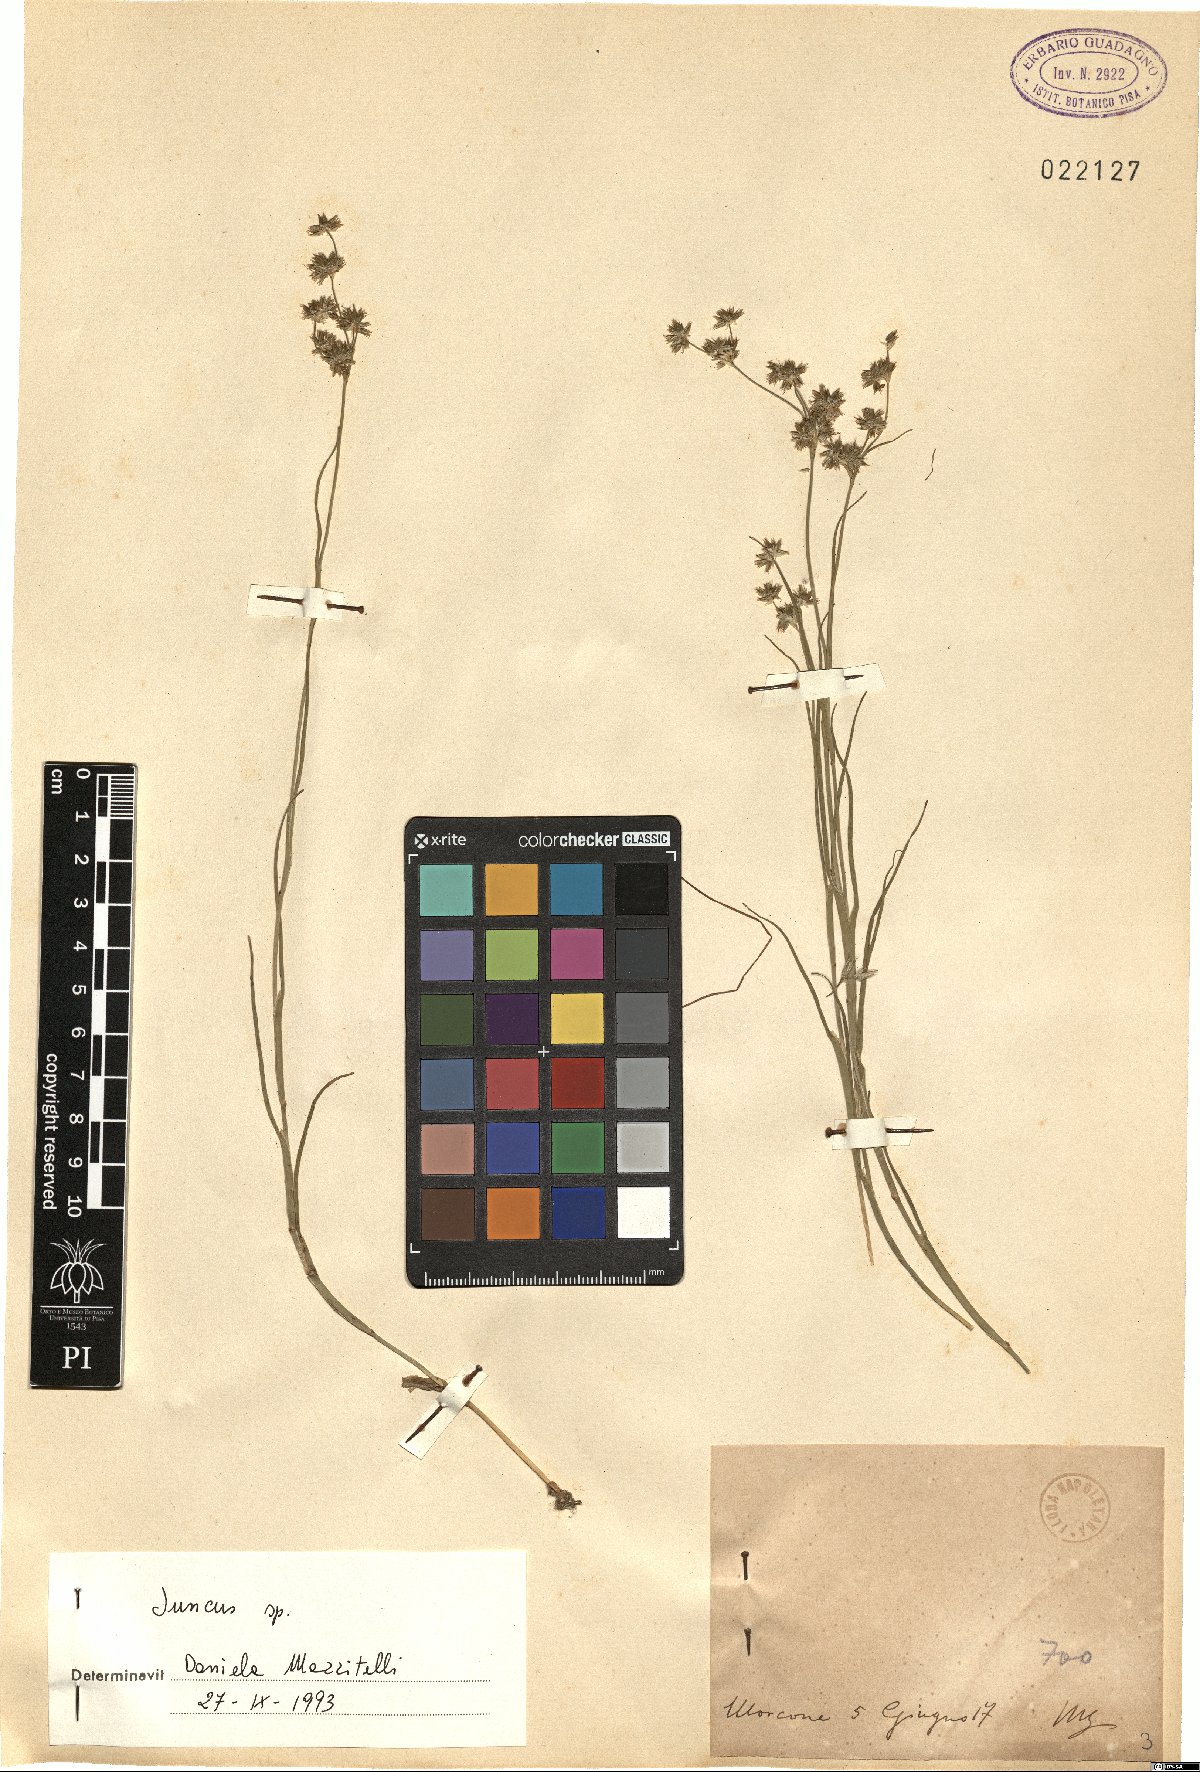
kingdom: Plantae
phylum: Tracheophyta
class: Liliopsida
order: Poales
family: Juncaceae
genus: Juncus
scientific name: Juncus
